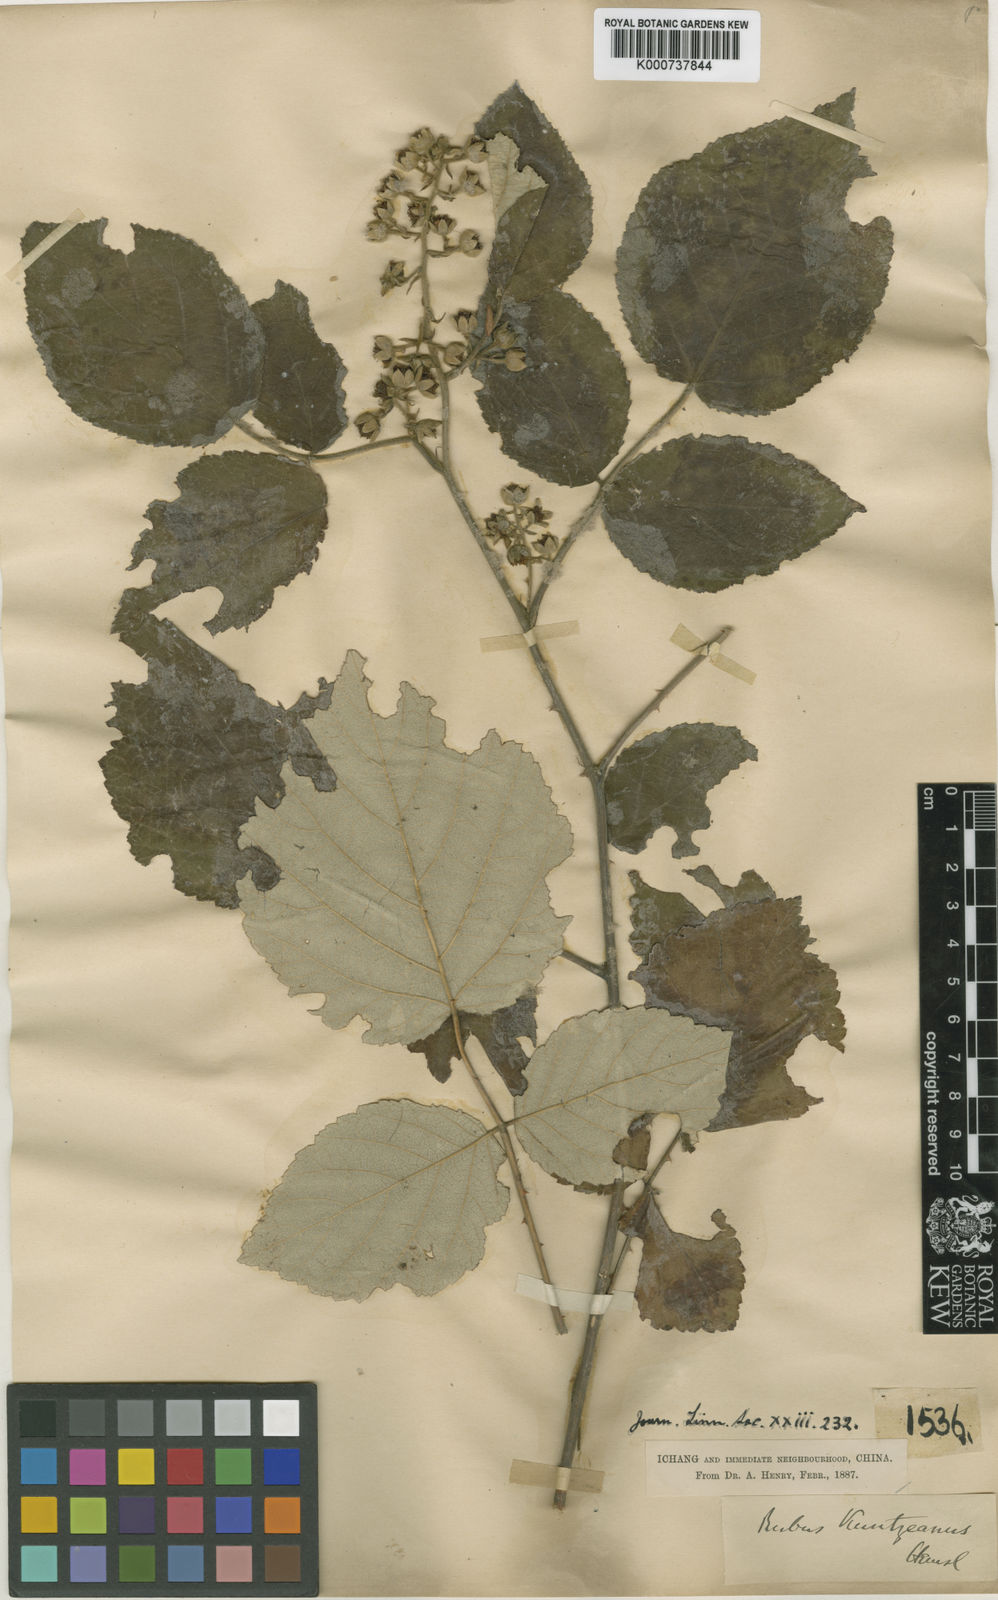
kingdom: Plantae
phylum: Tracheophyta
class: Magnoliopsida
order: Rosales
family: Rosaceae
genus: Rubus
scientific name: Rubus innominatus
